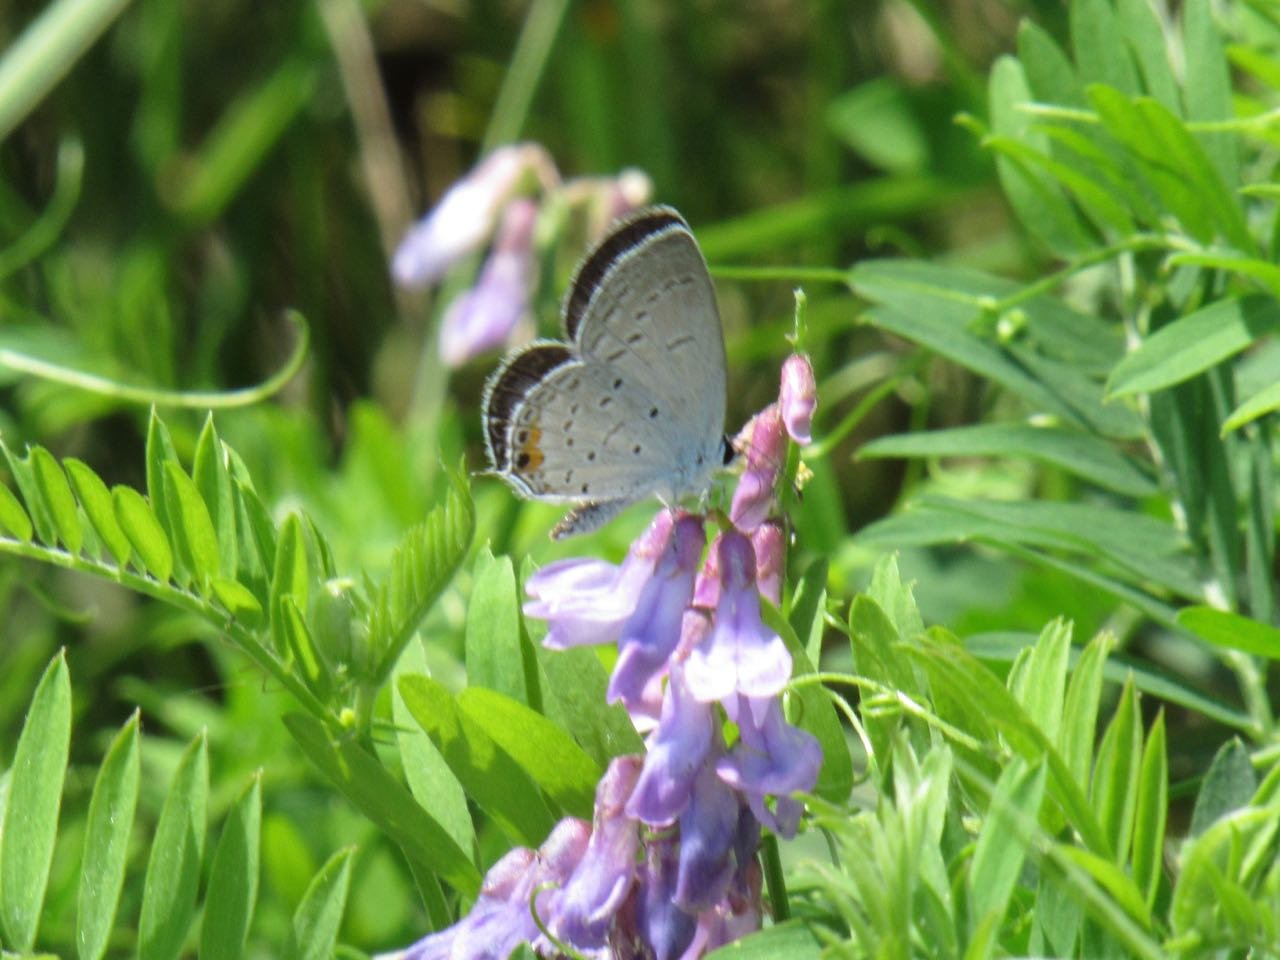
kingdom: Animalia
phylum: Arthropoda
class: Insecta
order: Lepidoptera
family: Lycaenidae
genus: Elkalyce
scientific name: Elkalyce comyntas
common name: Eastern Tailed-Blue
